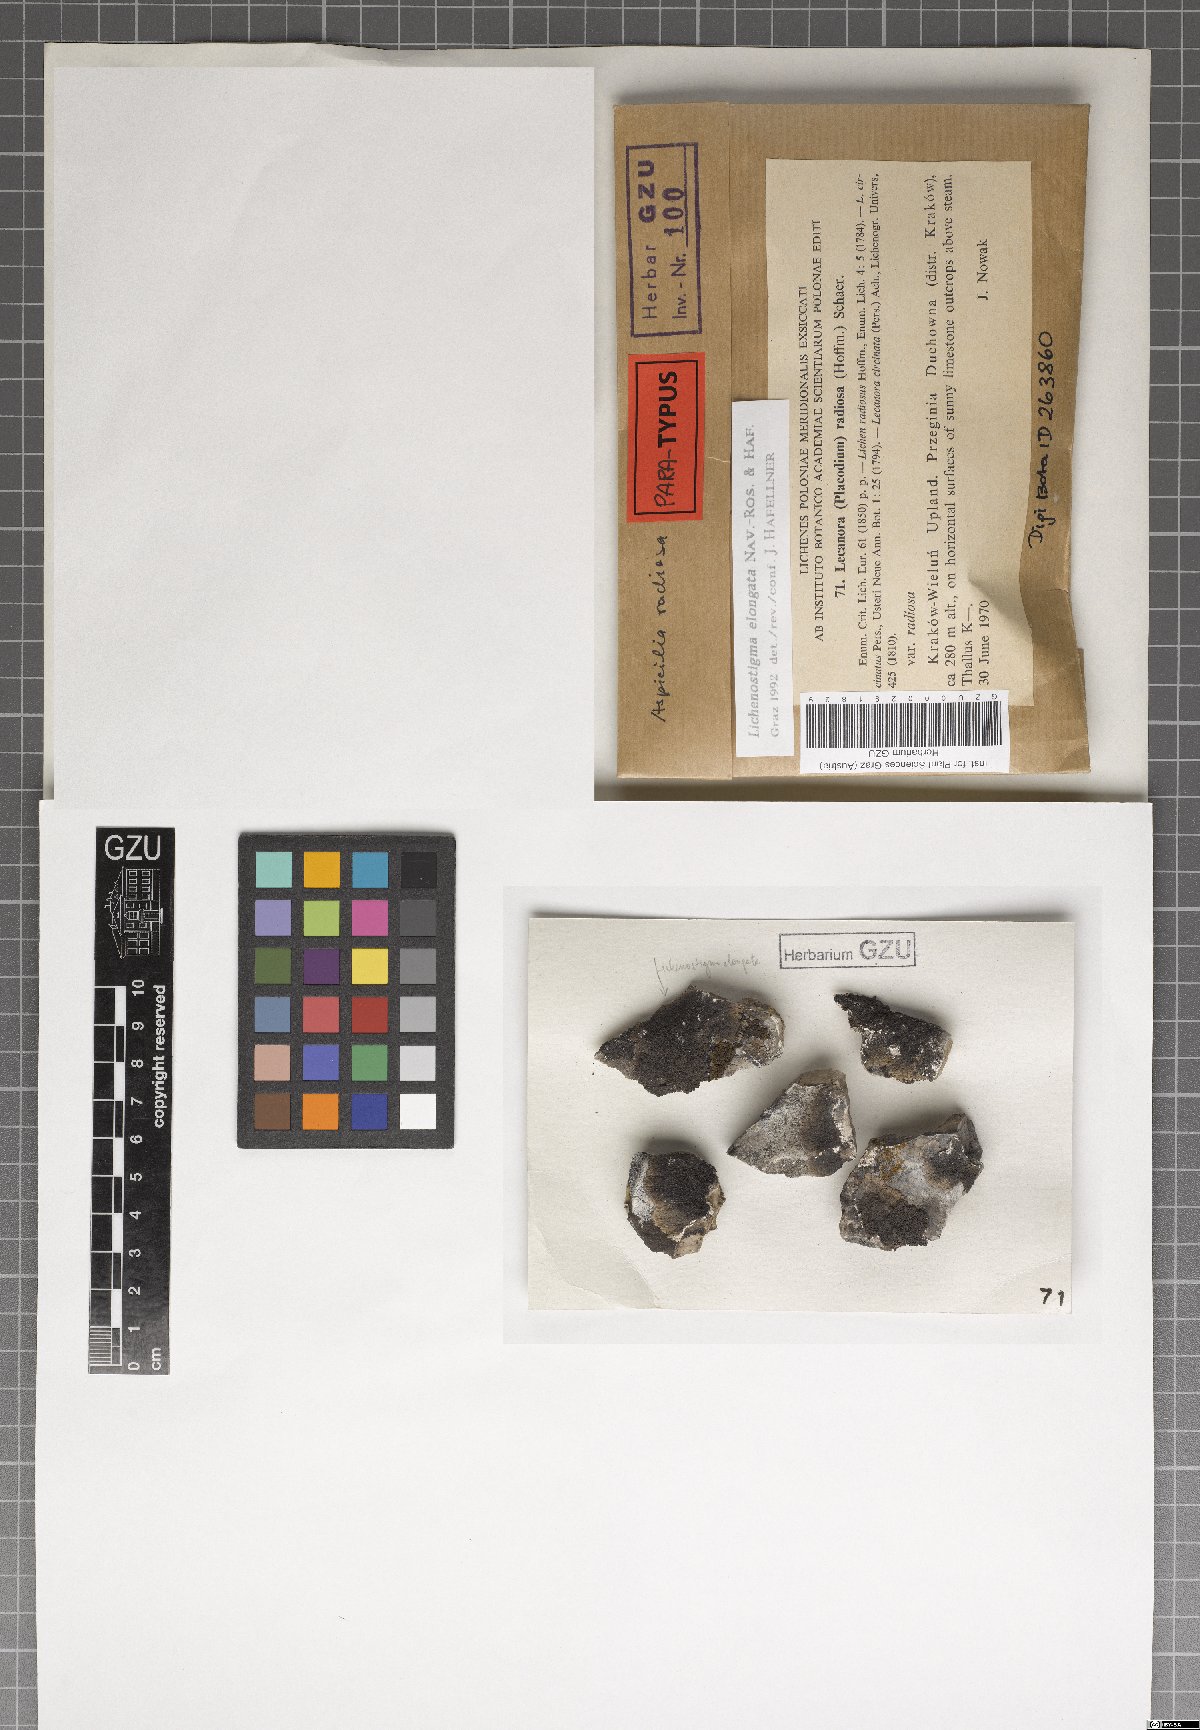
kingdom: Fungi
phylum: Ascomycota
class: Arthoniomycetes
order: Lichenostigmatales
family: Phaeococcomycetaceae
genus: Lichenostigma
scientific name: Lichenostigma elongatum
